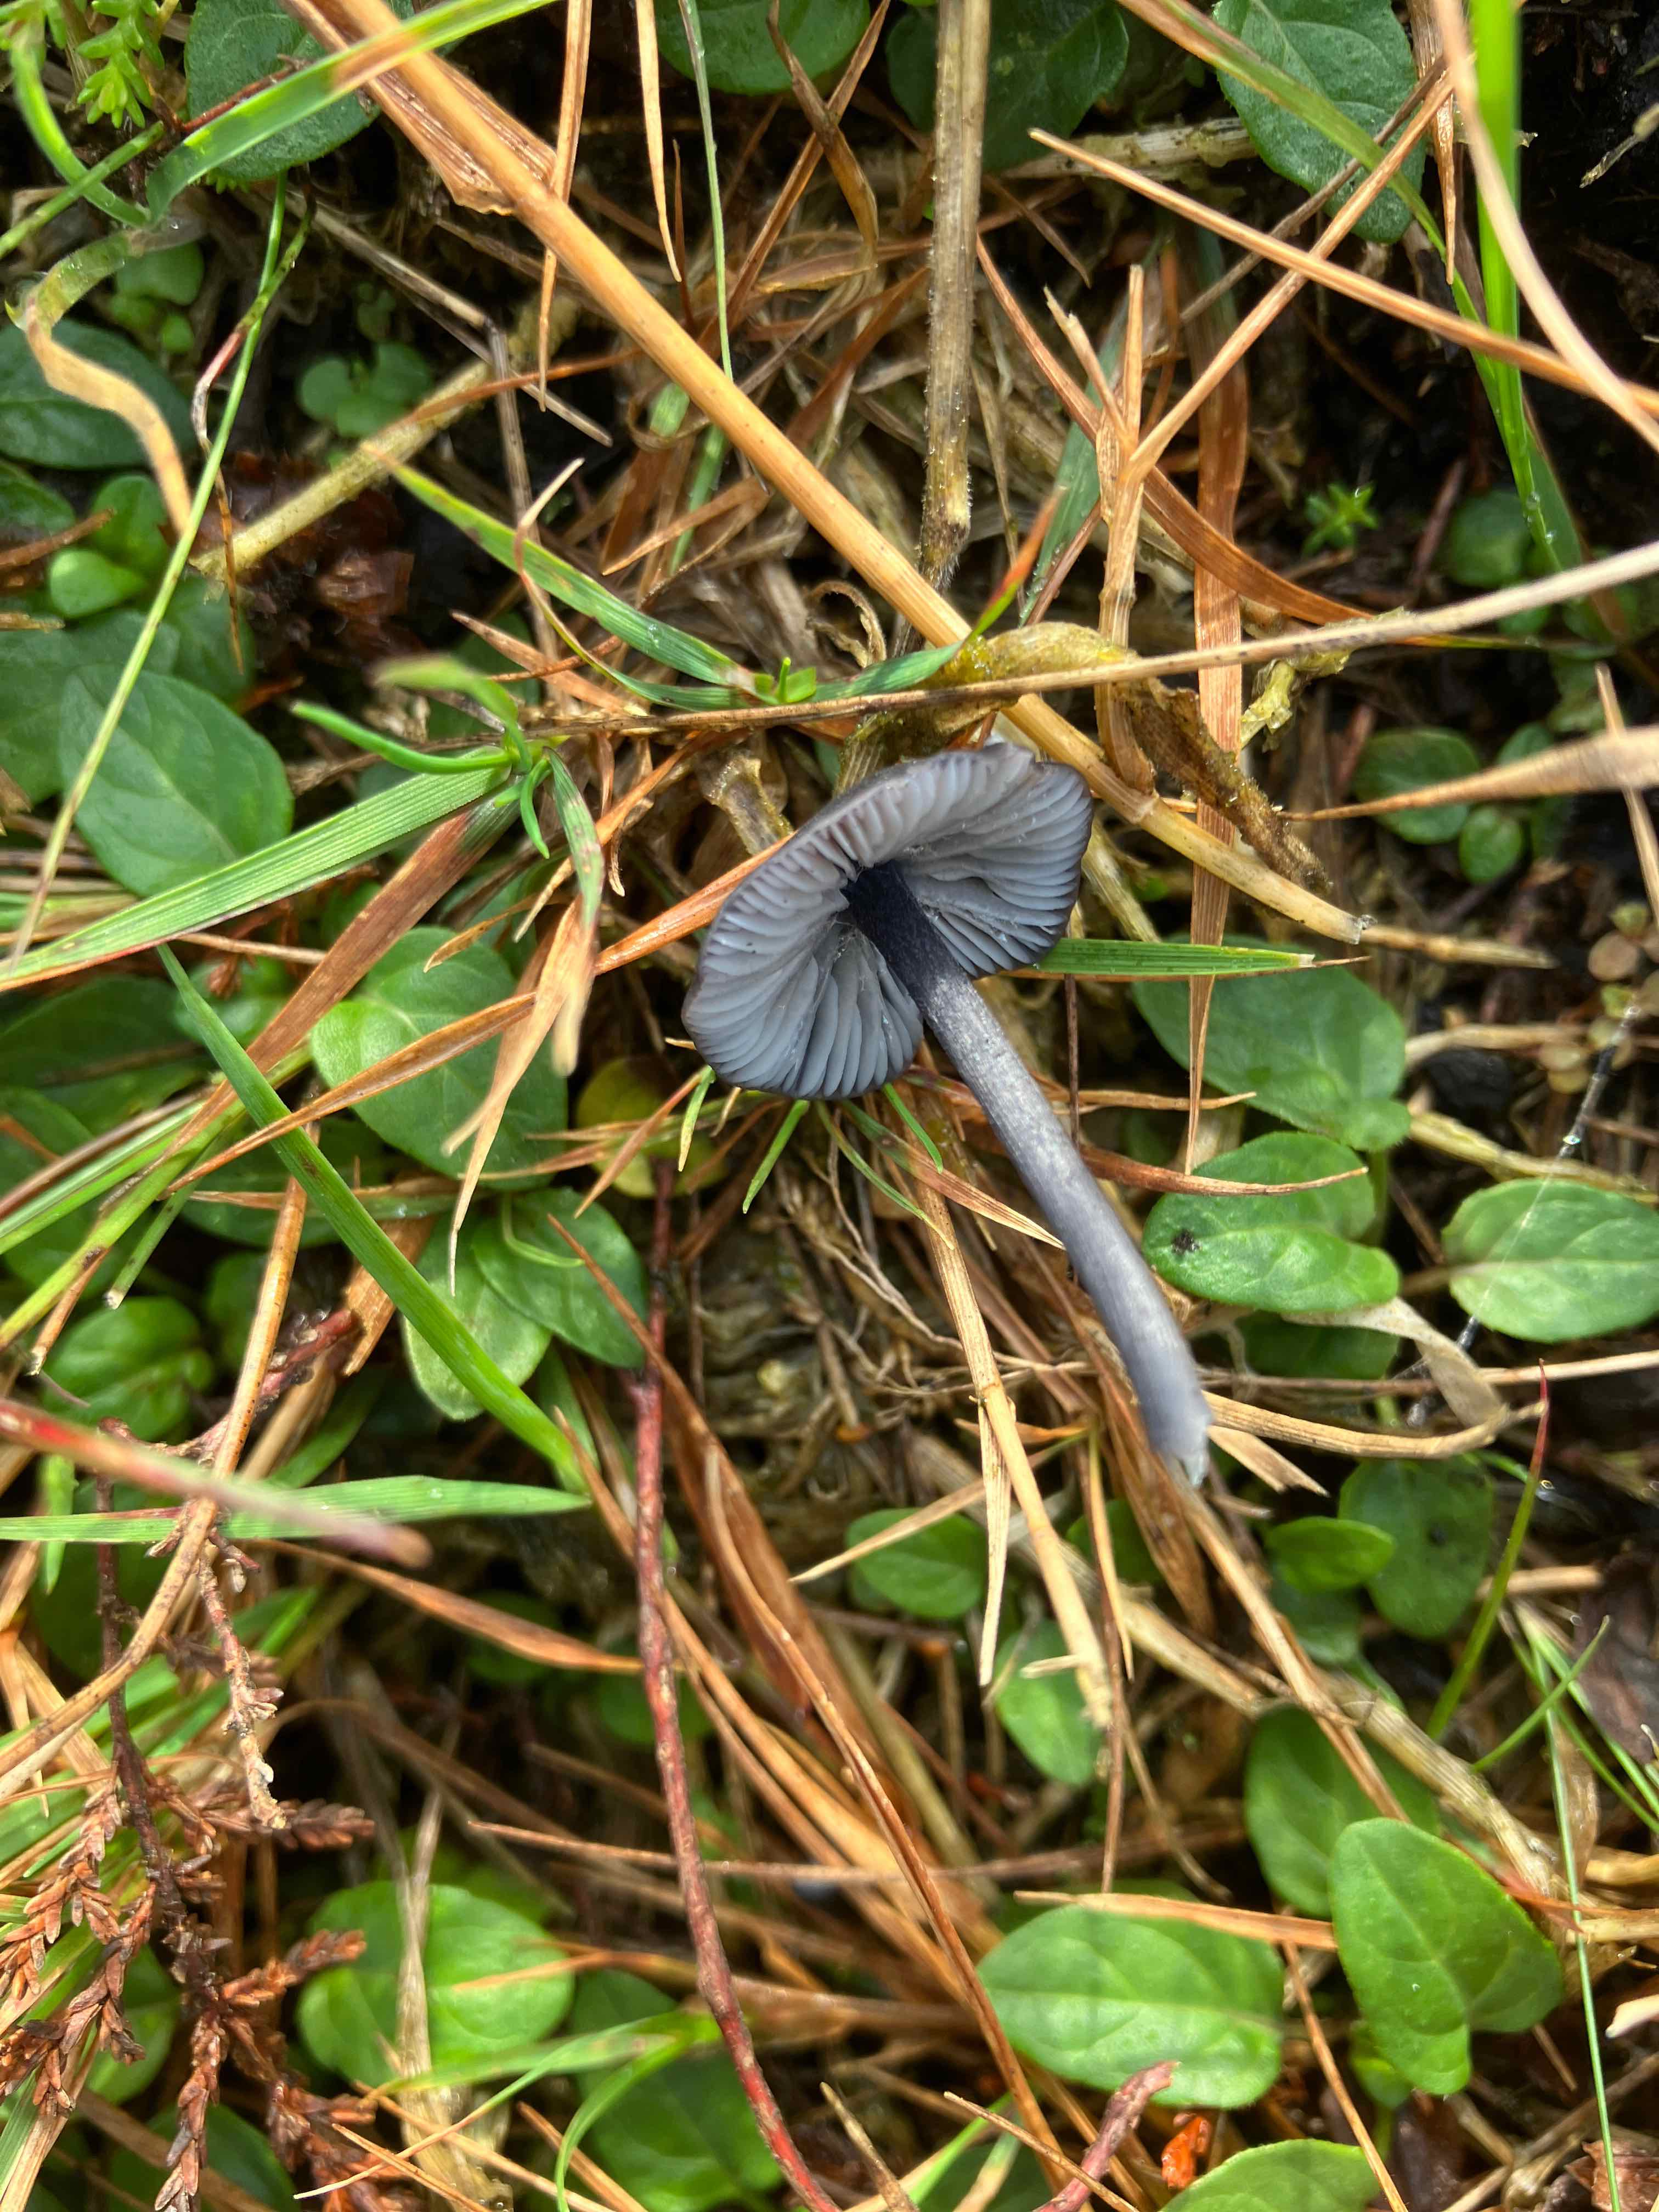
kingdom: Fungi
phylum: Basidiomycota
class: Agaricomycetes
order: Agaricales
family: Entolomataceae
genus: Entoloma
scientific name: Entoloma chalybeum
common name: blåbladet rødblad
